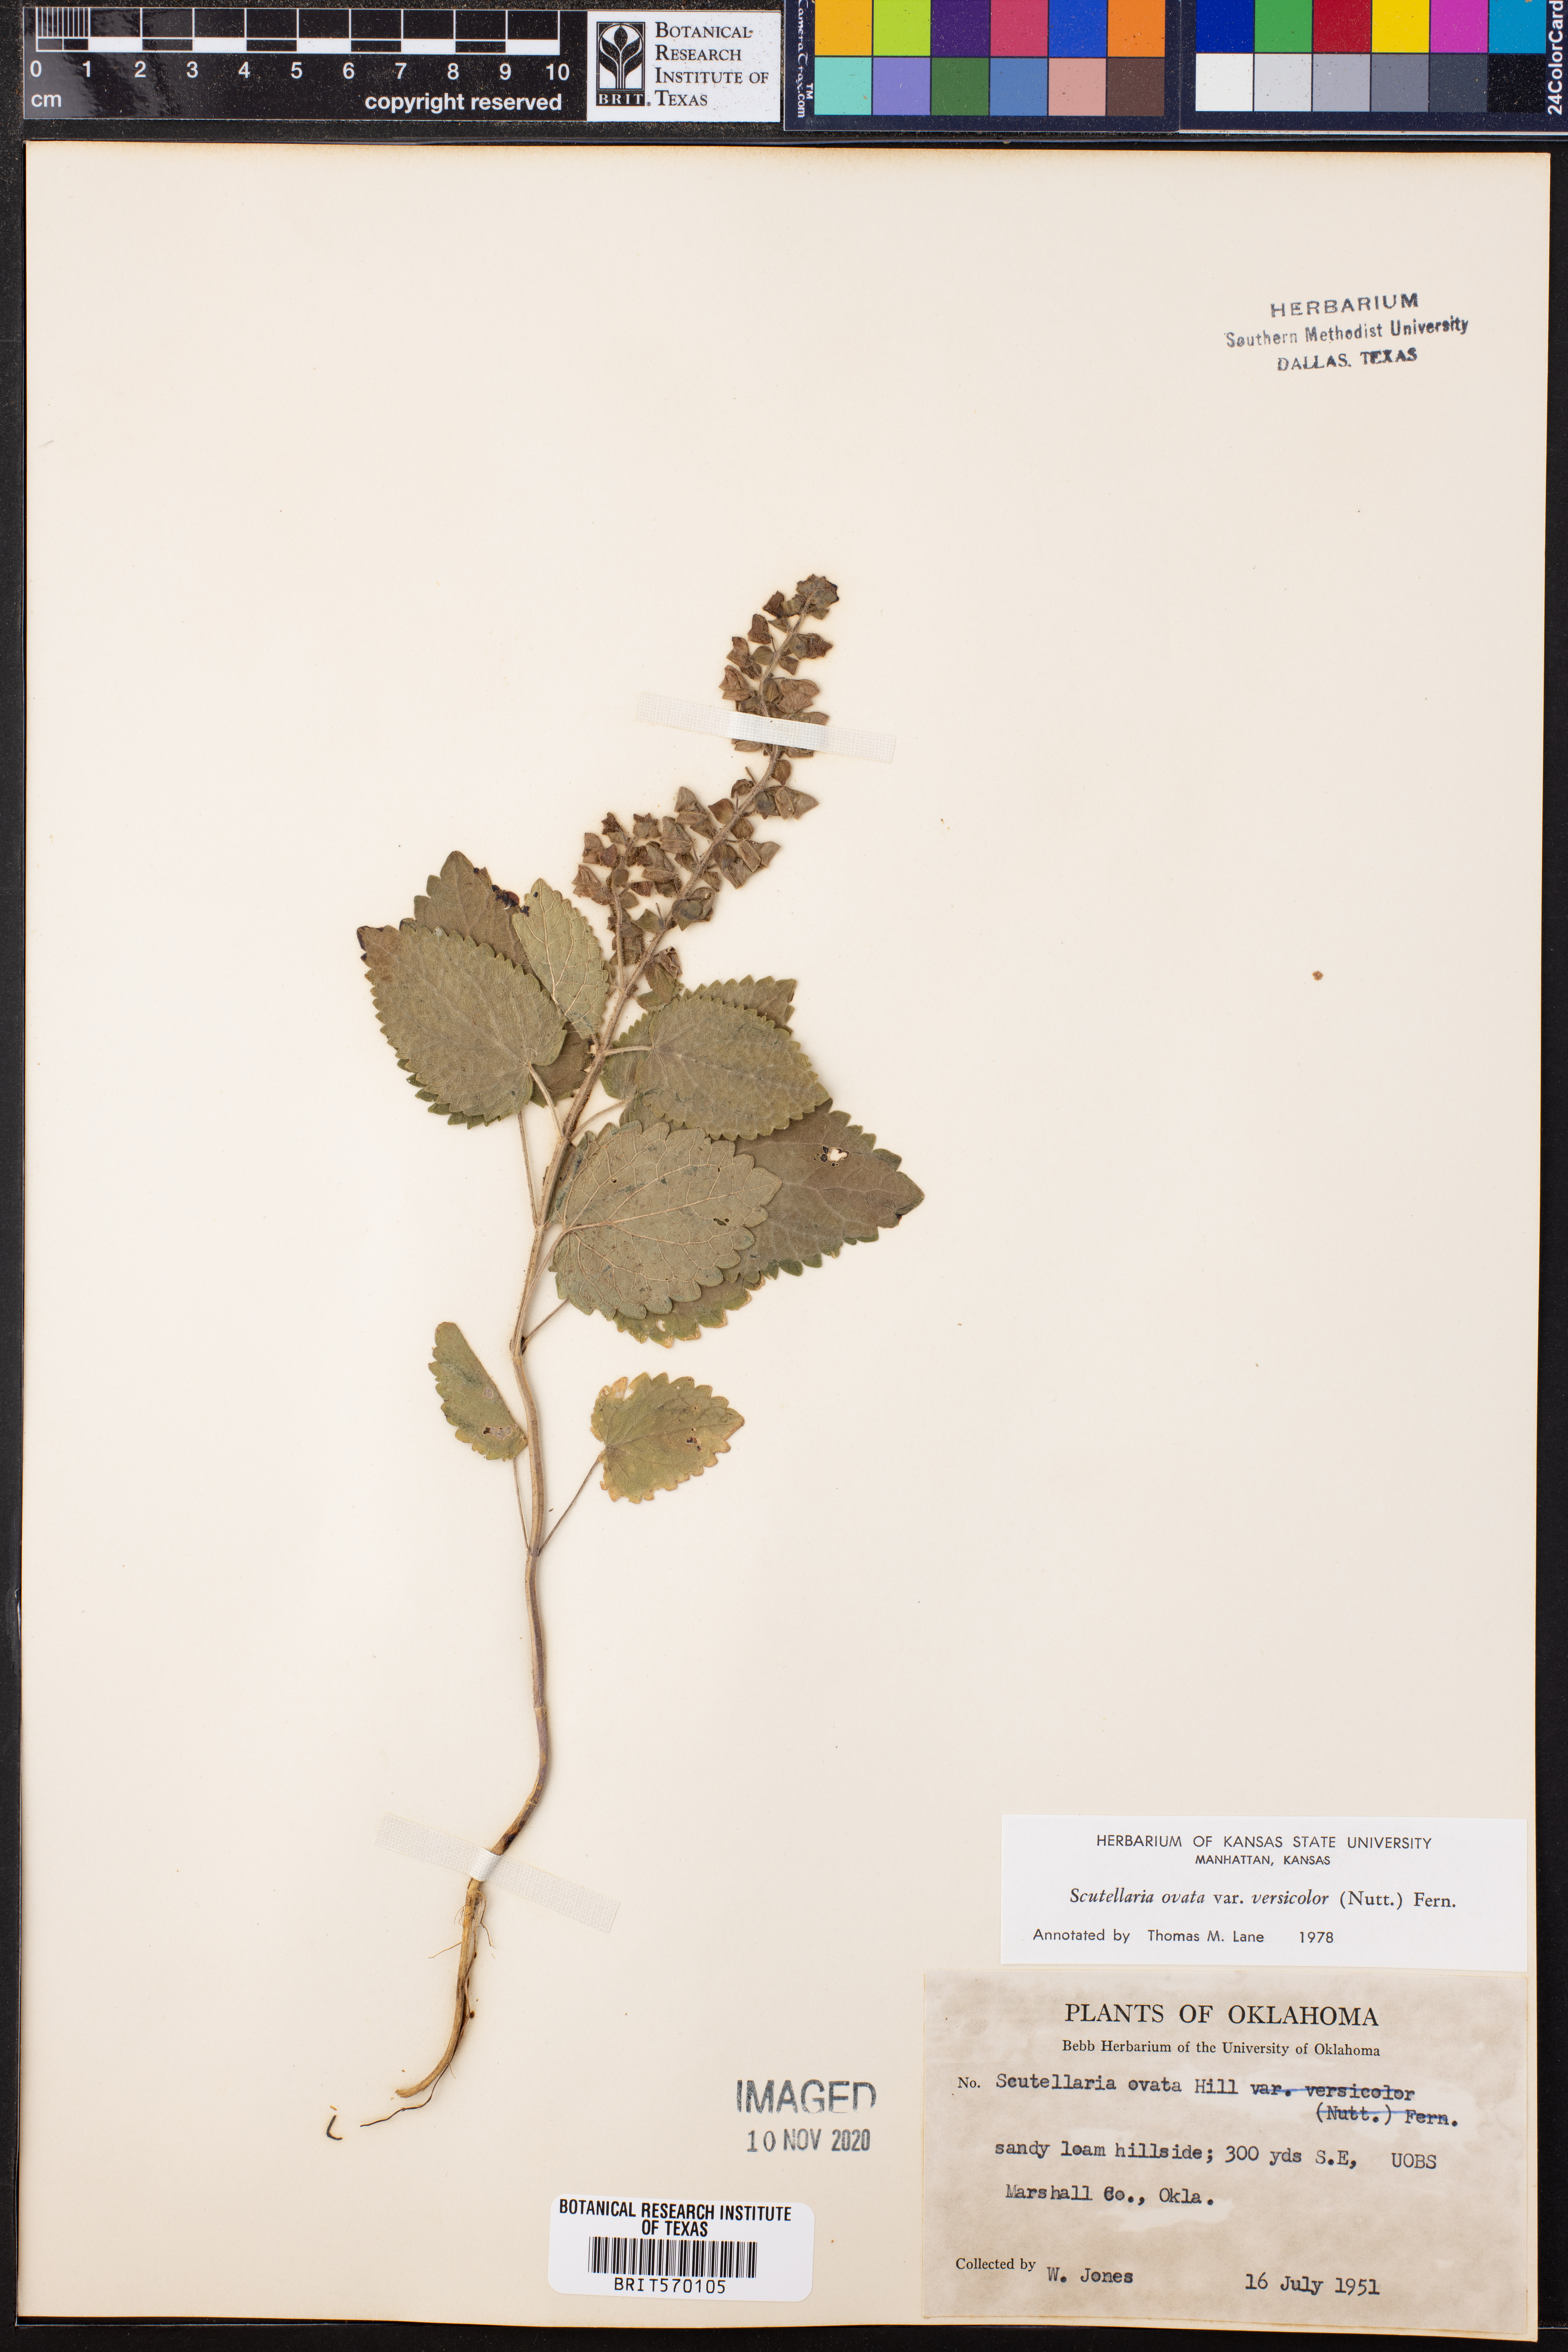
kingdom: Plantae
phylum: Tracheophyta
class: Magnoliopsida
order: Lamiales
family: Lamiaceae
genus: Scutellaria
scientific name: Scutellaria ovata
